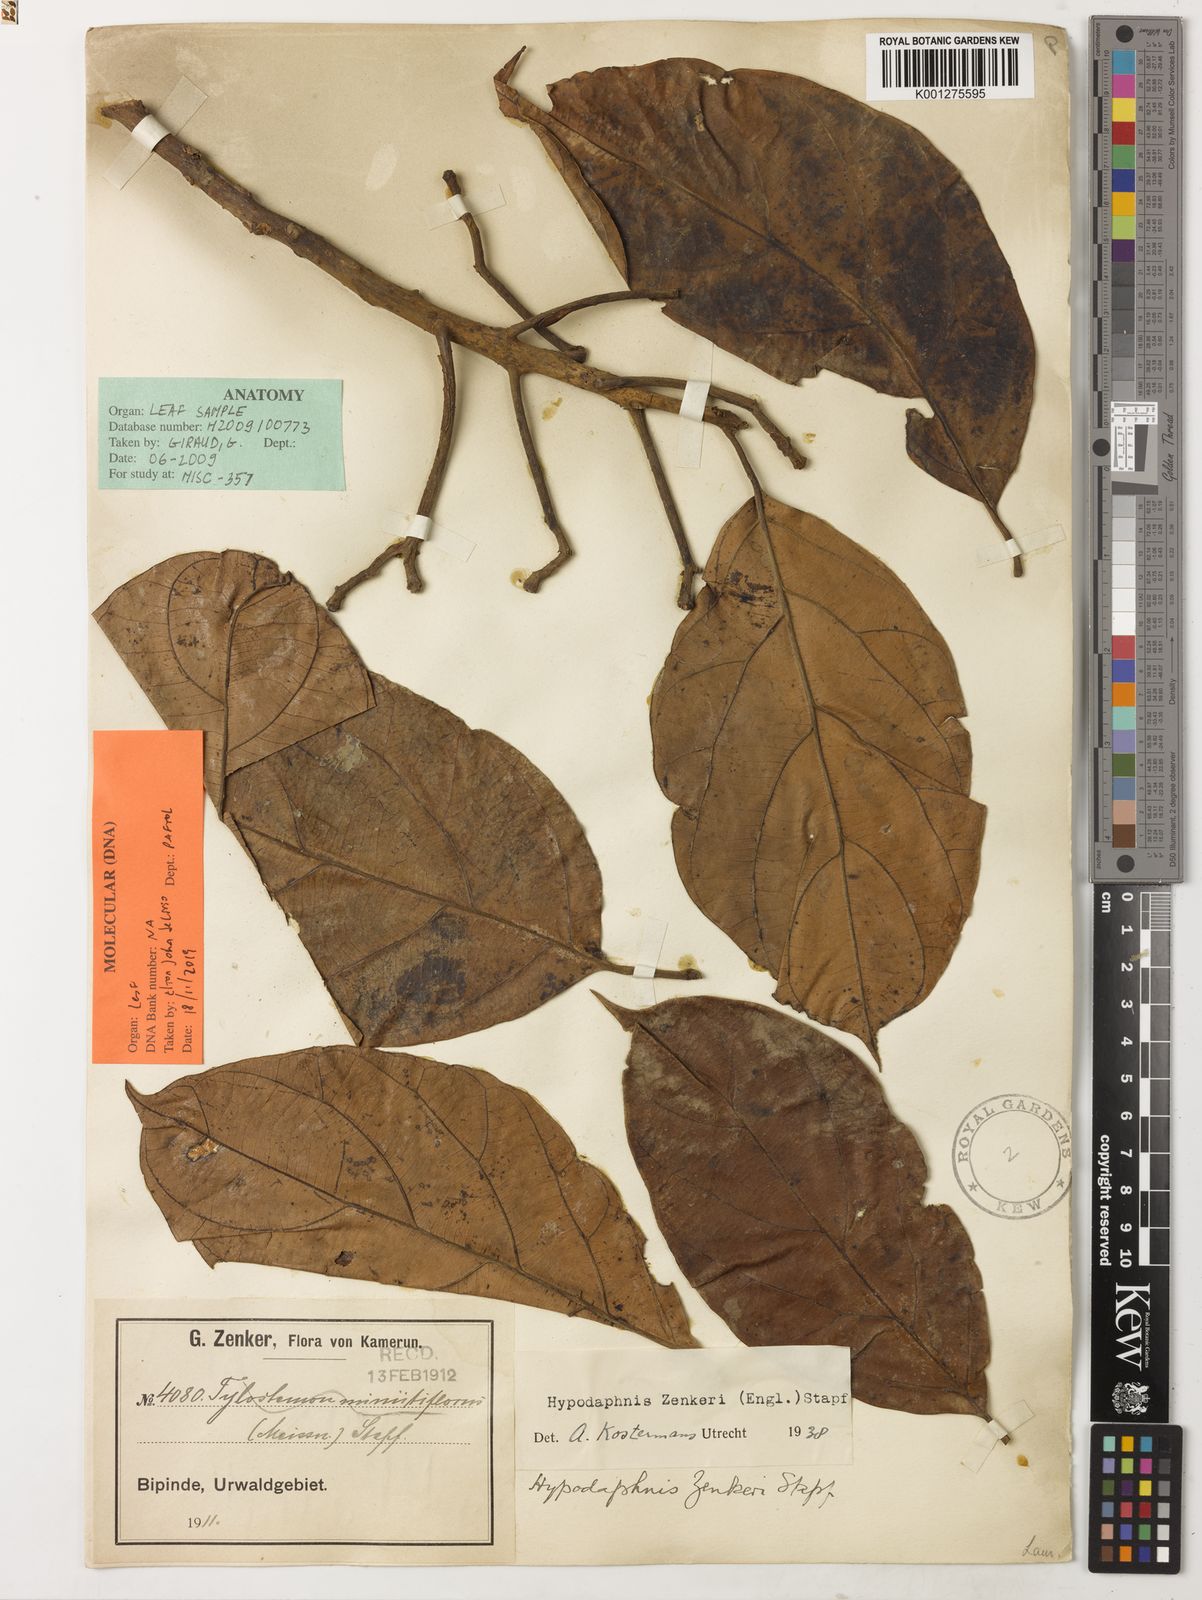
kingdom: Plantae
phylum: Tracheophyta
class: Magnoliopsida
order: Laurales
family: Lauraceae
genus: Hypodaphnis
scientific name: Hypodaphnis zenkeri
